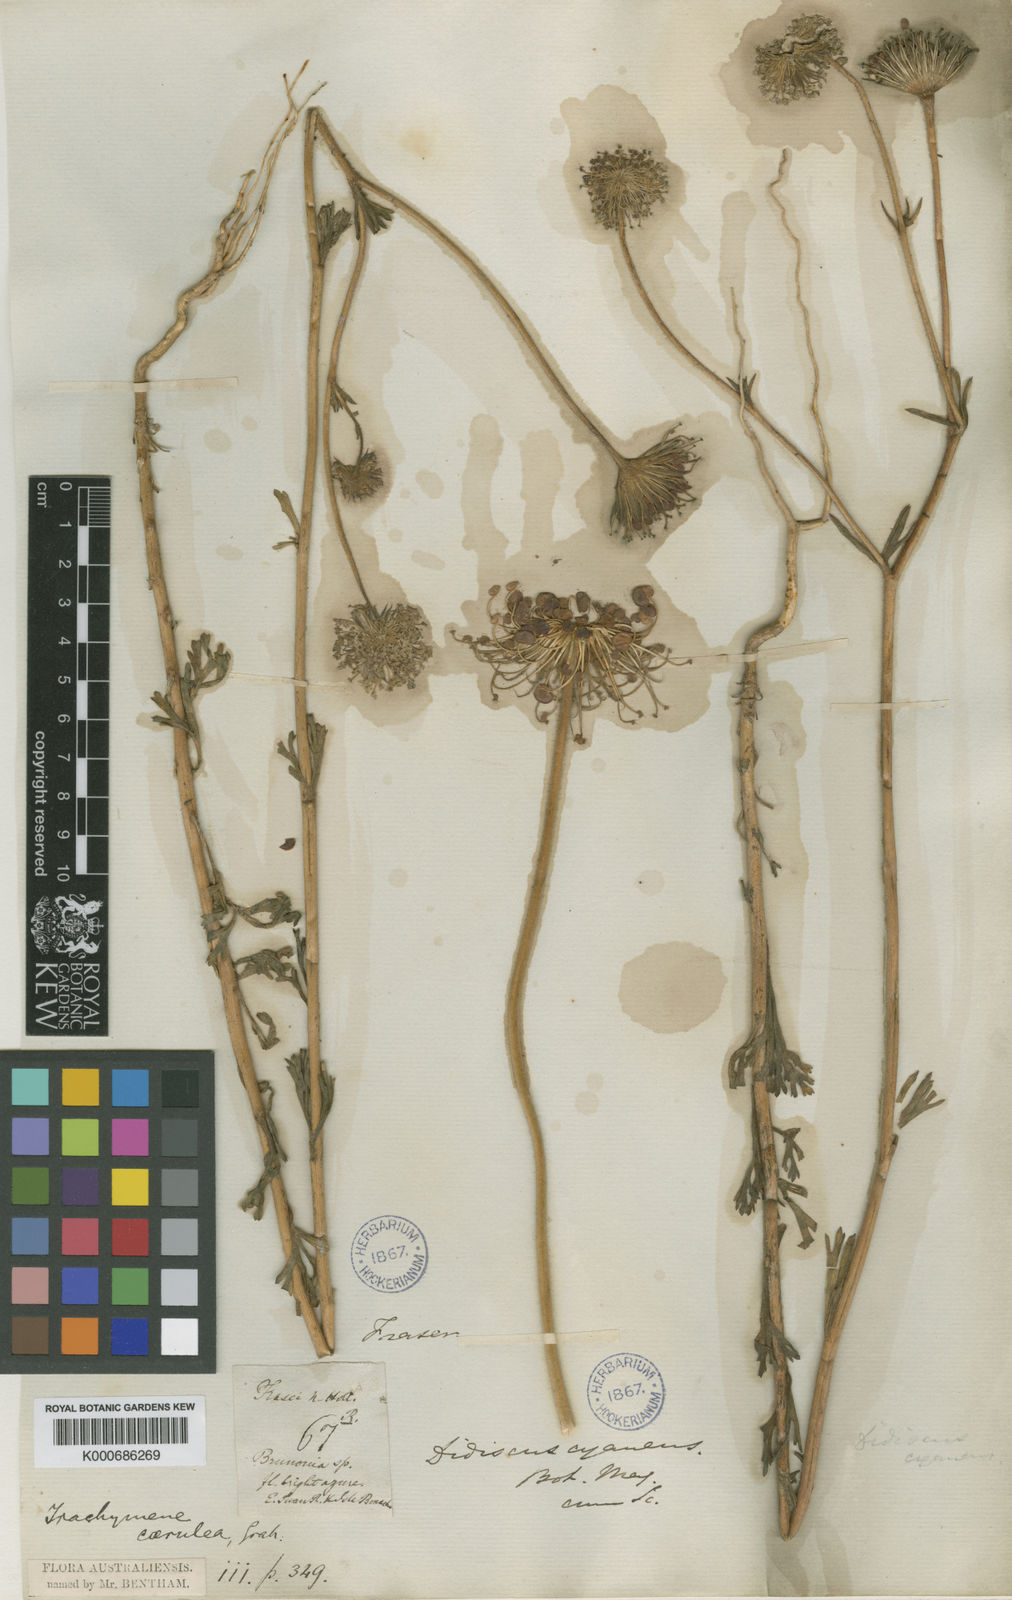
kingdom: Plantae
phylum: Tracheophyta
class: Magnoliopsida
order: Apiales
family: Araliaceae
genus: Trachymene
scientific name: Trachymene
